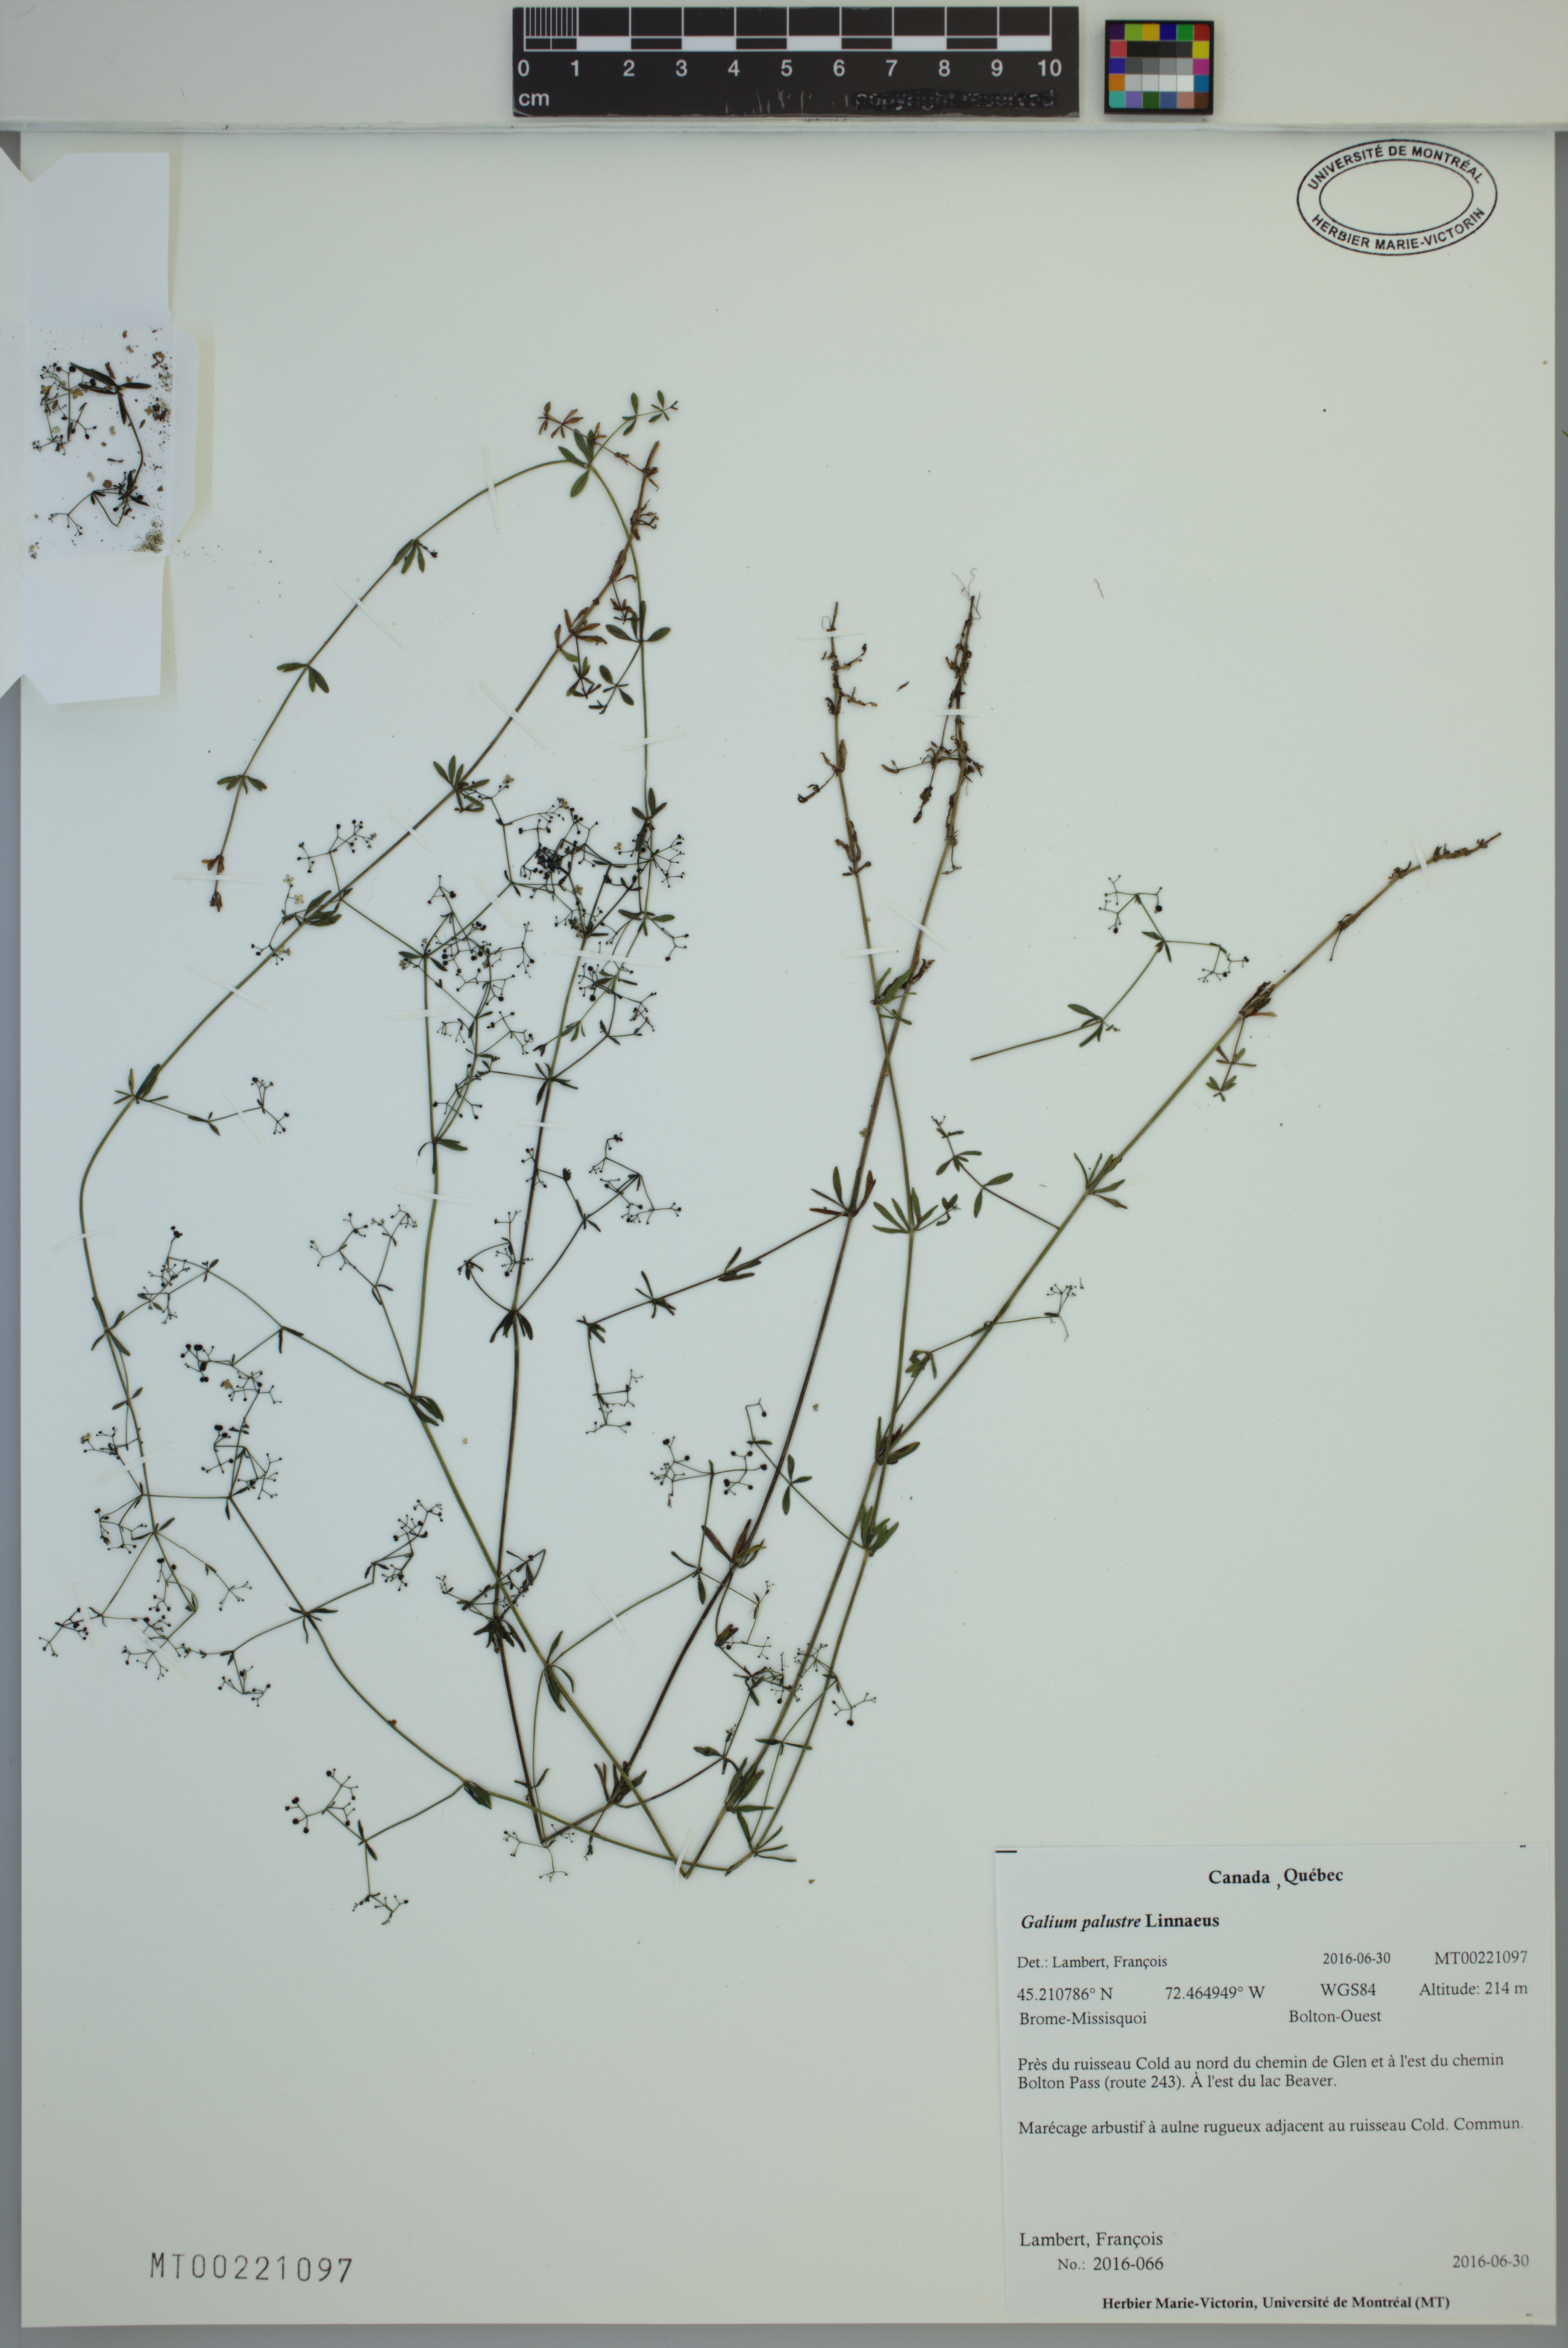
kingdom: Plantae
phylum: Tracheophyta
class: Magnoliopsida
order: Gentianales
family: Rubiaceae
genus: Galium
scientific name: Galium palustre
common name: Common marsh-bedstraw
